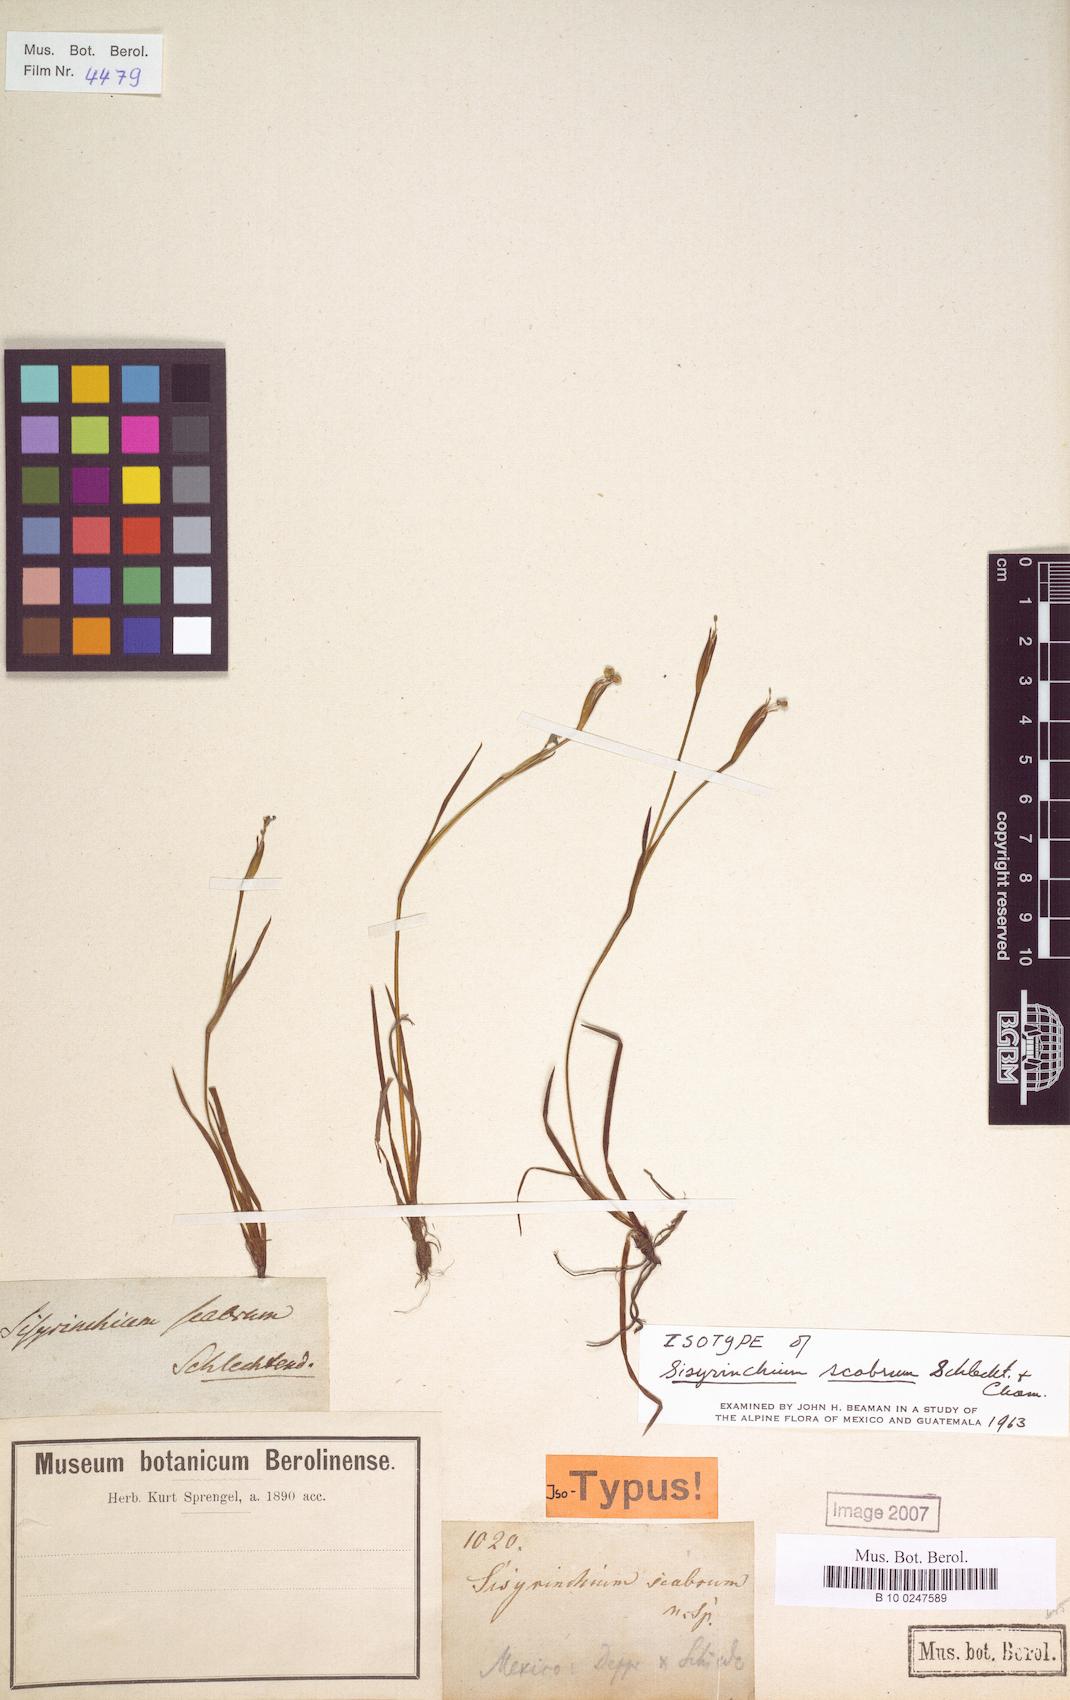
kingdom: Plantae
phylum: Tracheophyta
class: Liliopsida
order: Asparagales
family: Iridaceae
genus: Sisyrinchium
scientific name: Sisyrinchium scabrum
